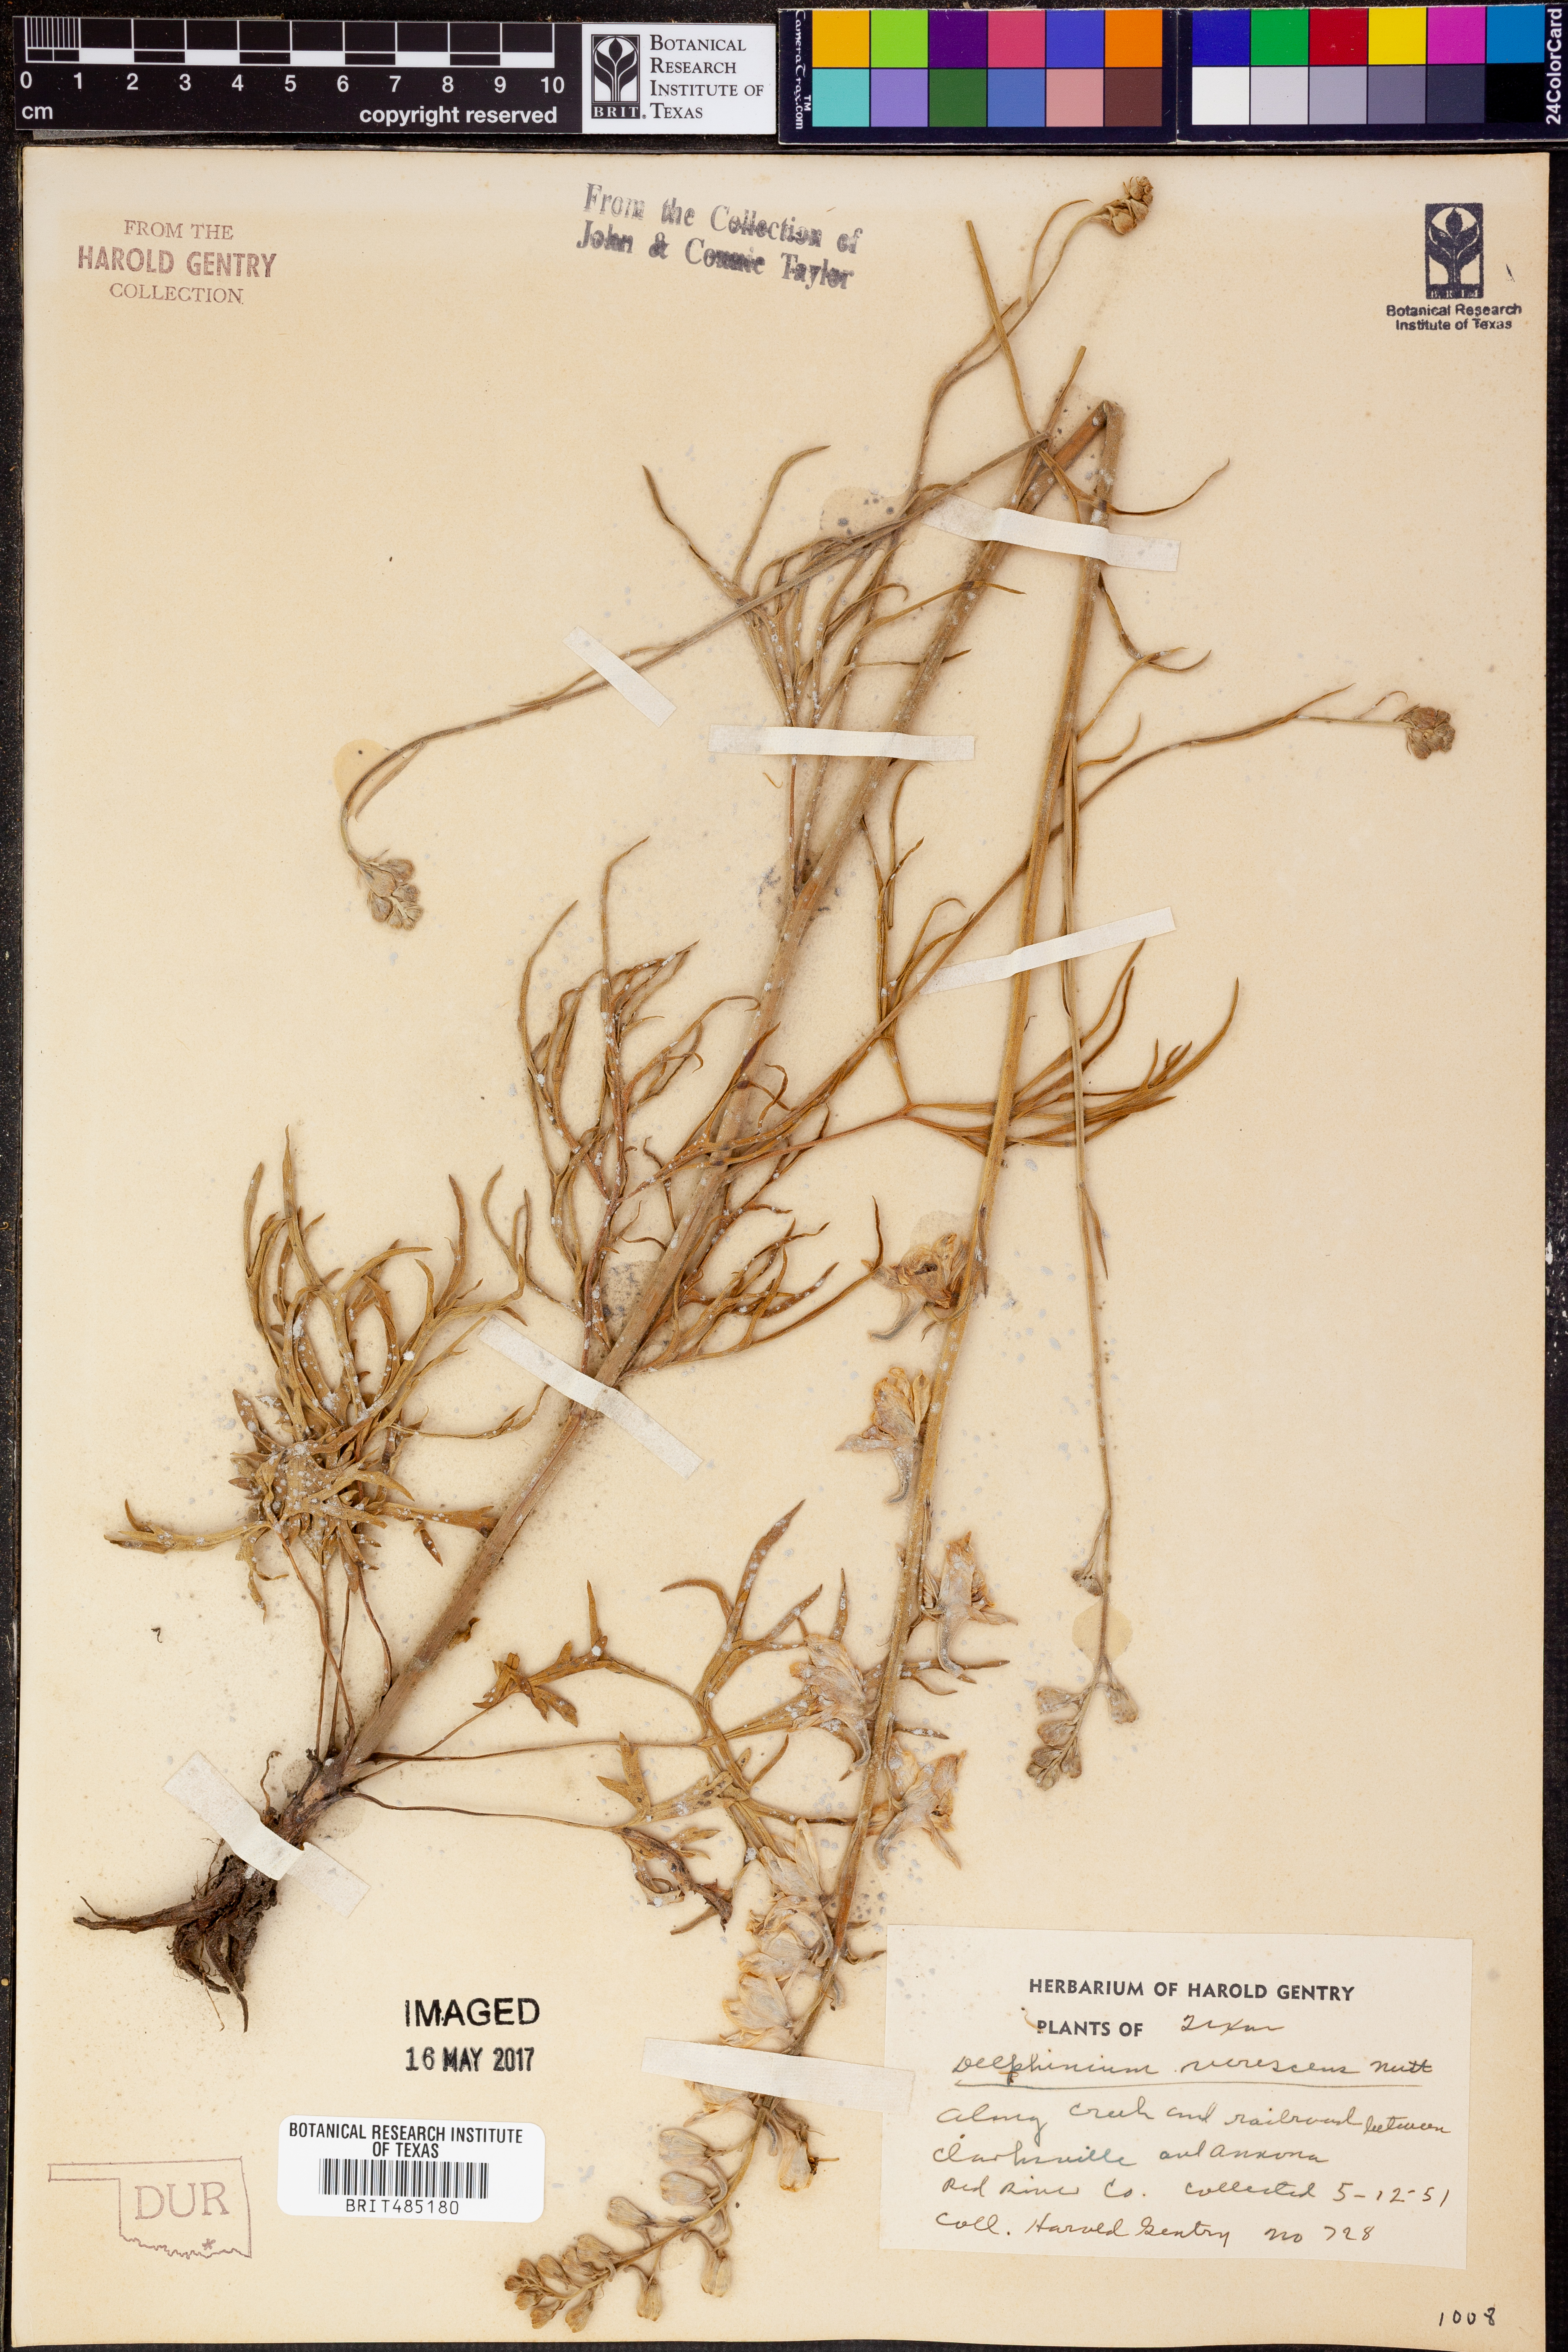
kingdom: Plantae
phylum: Tracheophyta
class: Magnoliopsida
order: Ranunculales
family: Ranunculaceae
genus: Delphinium
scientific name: Delphinium carolinianum
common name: Carolina larkspur
